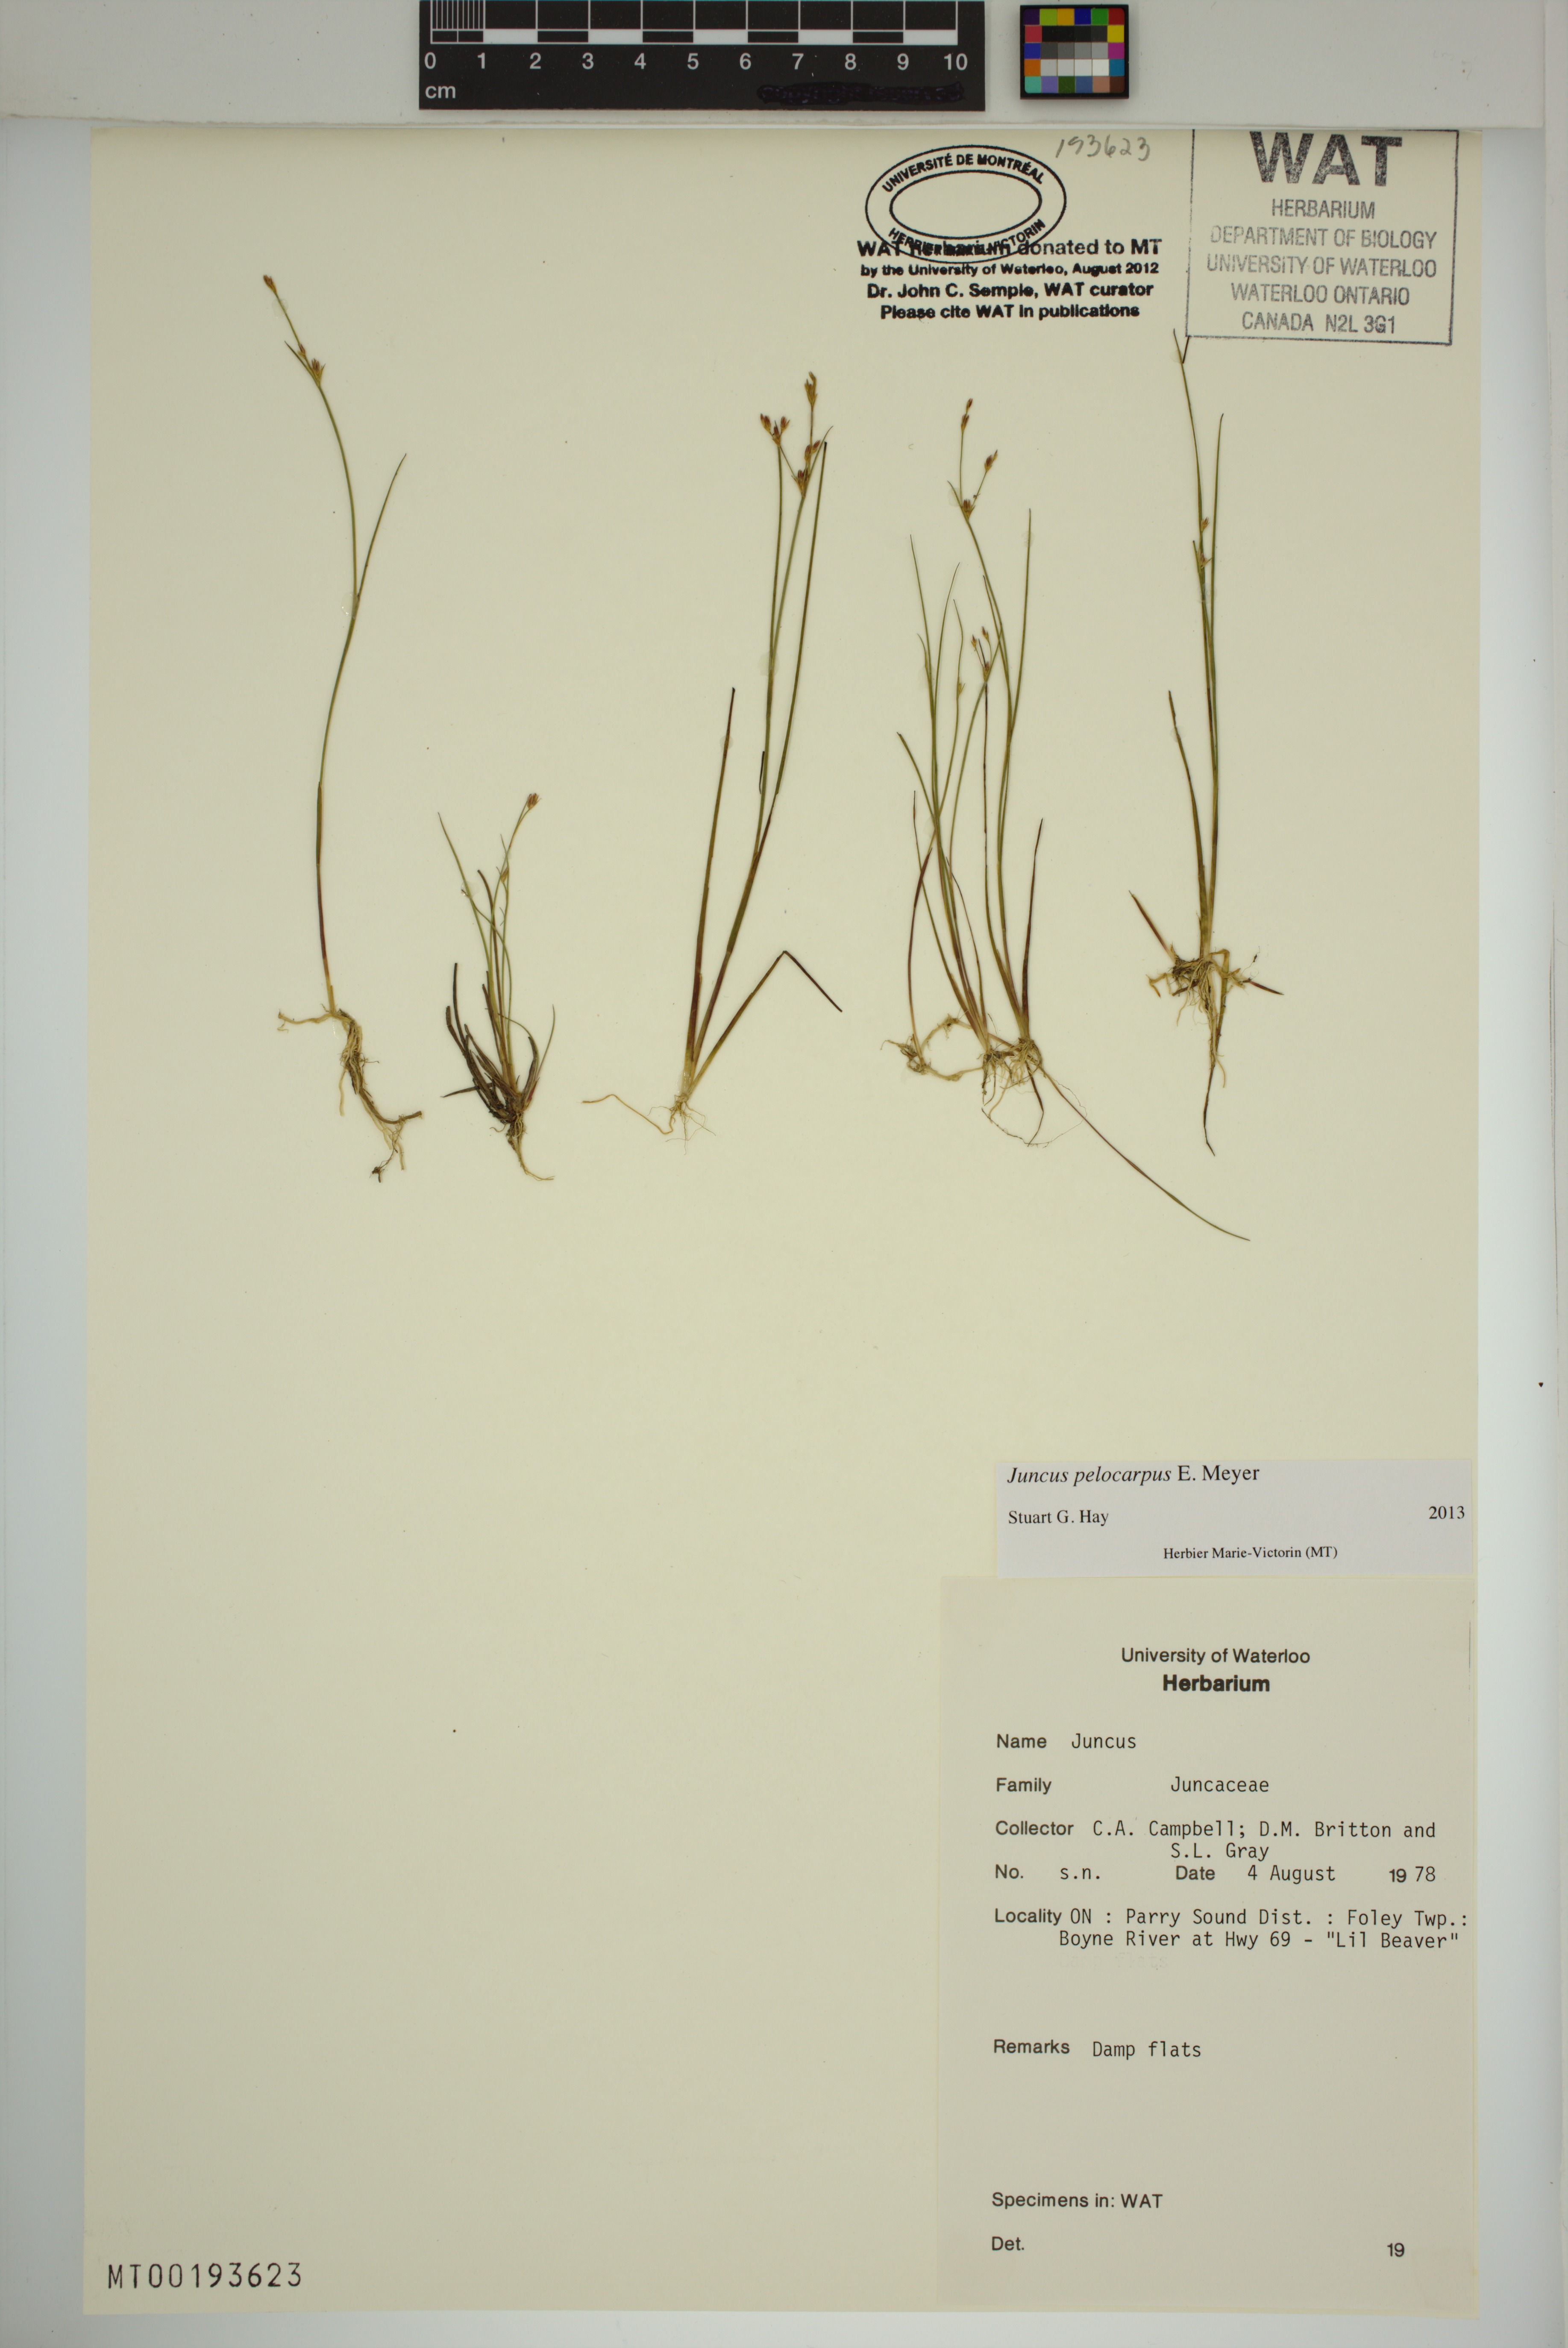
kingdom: Plantae
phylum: Tracheophyta
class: Liliopsida
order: Poales
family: Juncaceae
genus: Juncus
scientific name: Juncus pelocarpus
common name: Brown-fruited rush
